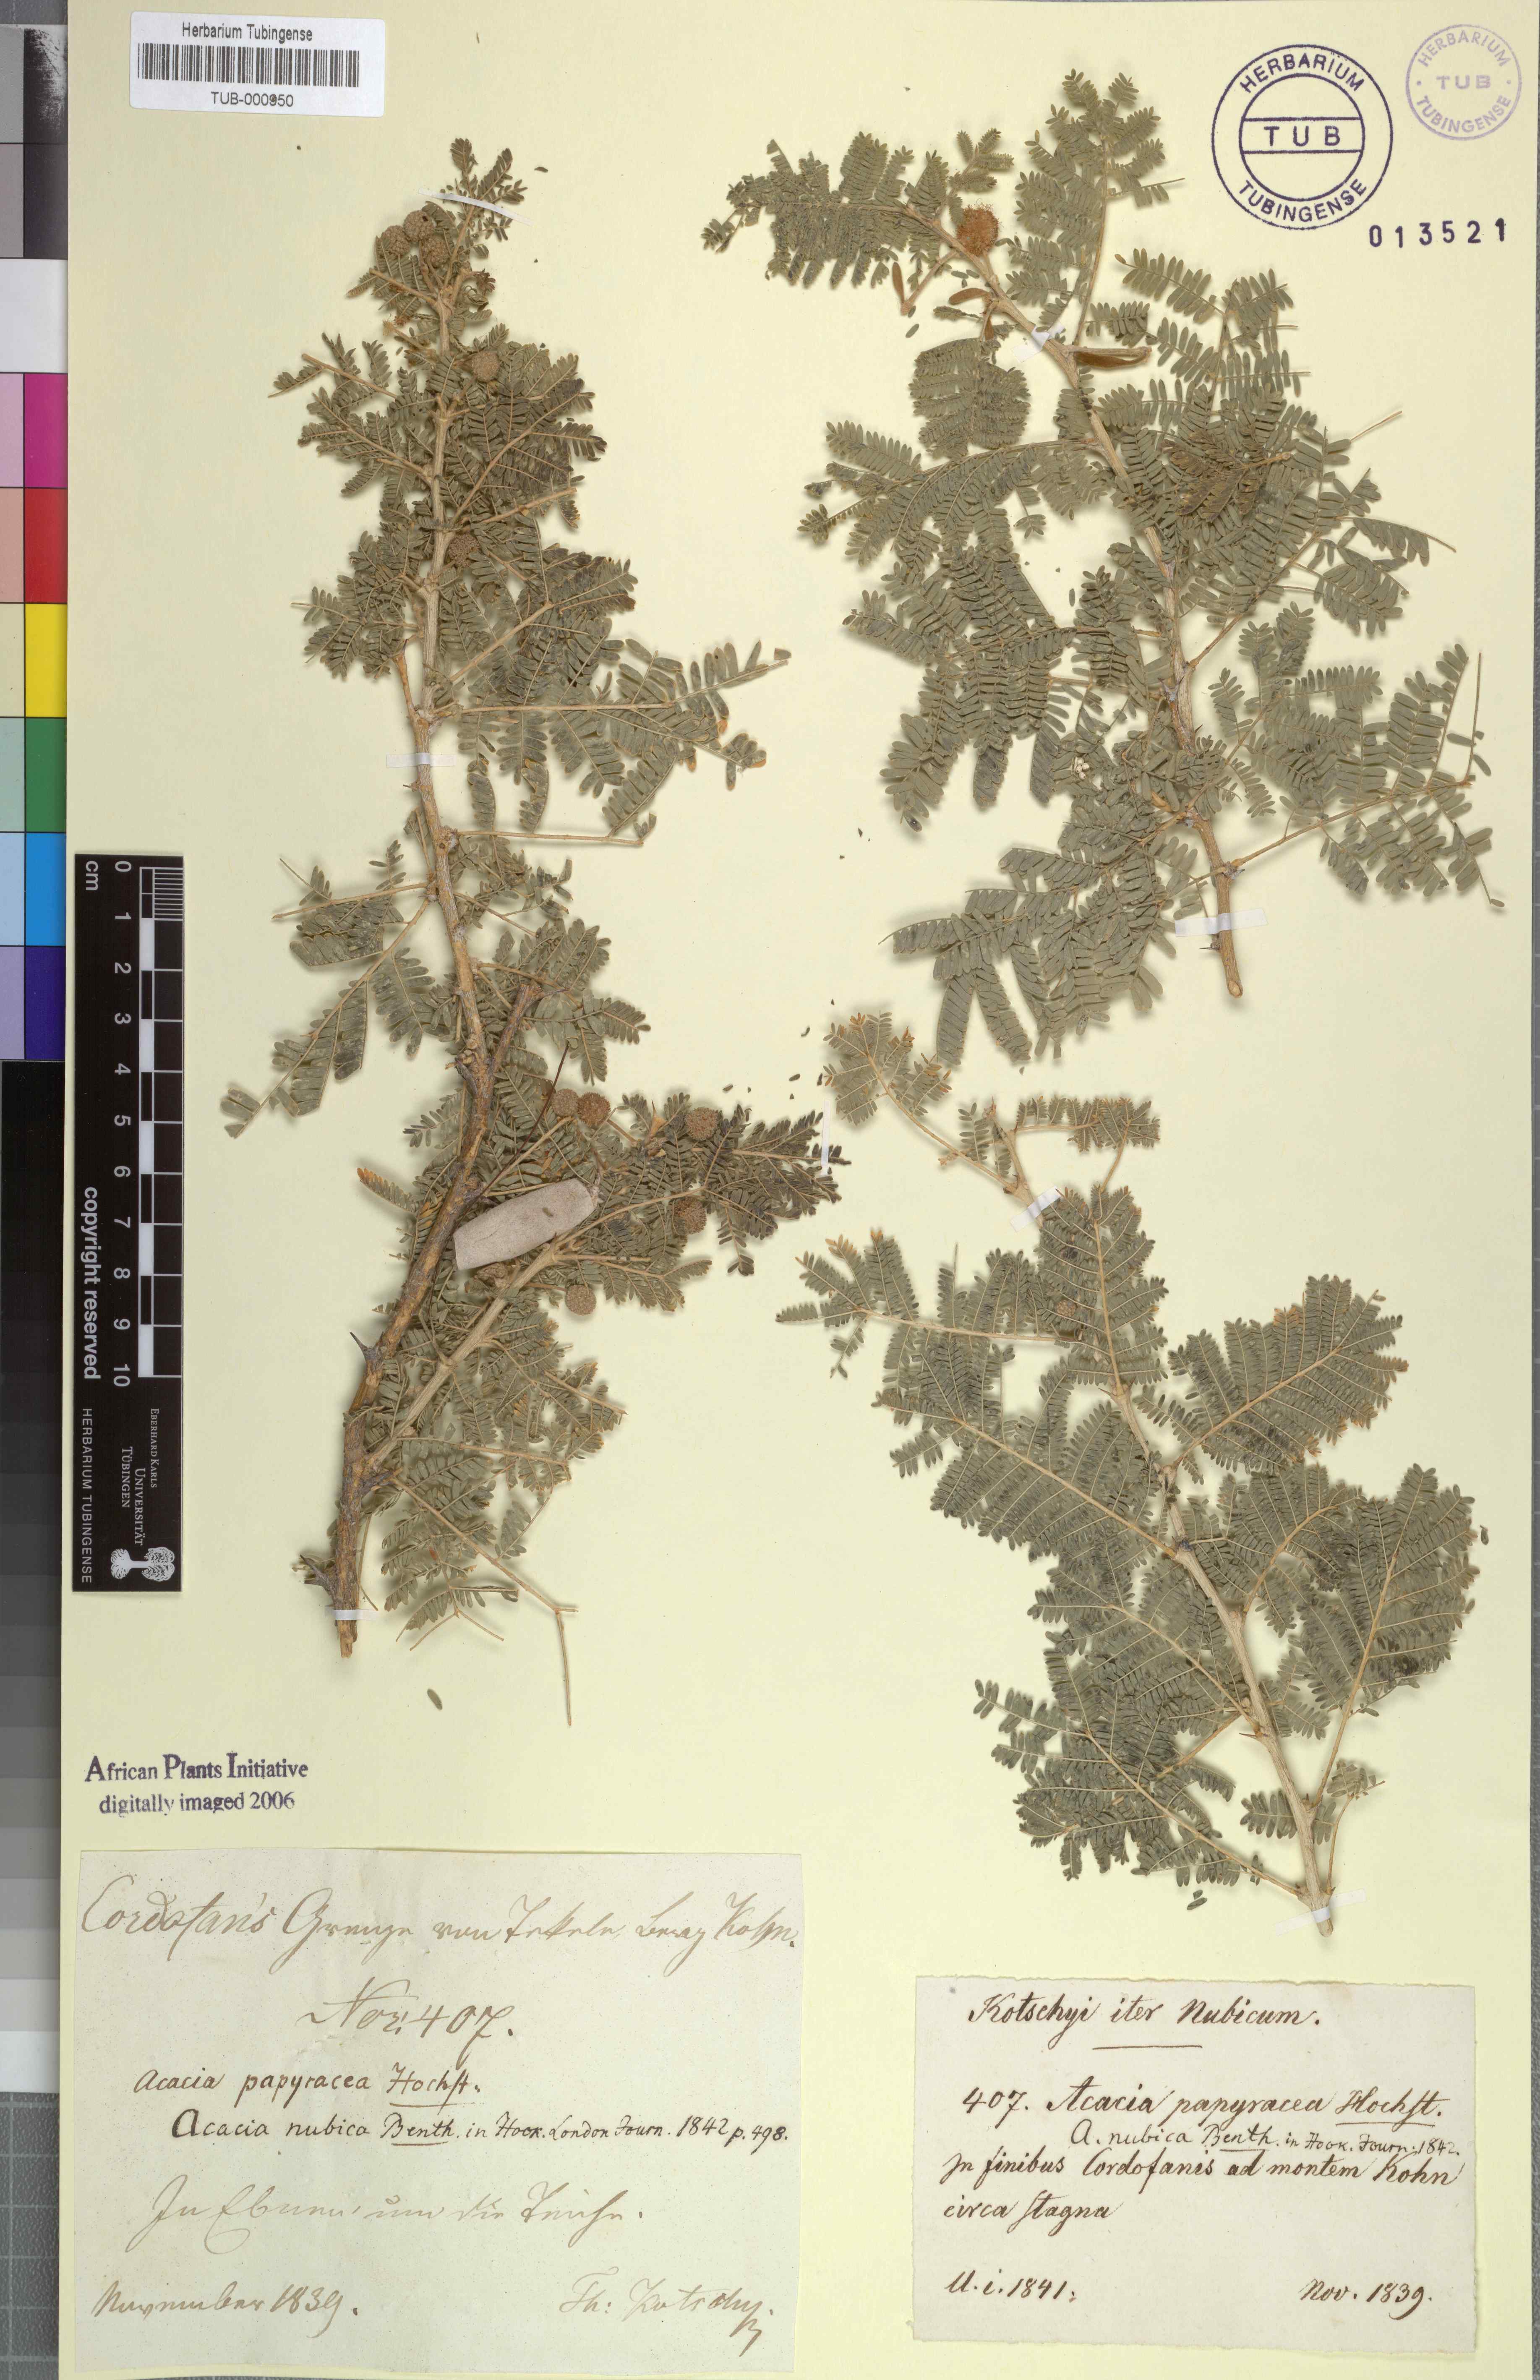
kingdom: Plantae
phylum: Tracheophyta
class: Magnoliopsida
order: Fabales
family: Fabaceae
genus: Vachellia
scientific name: Vachellia oerfota
